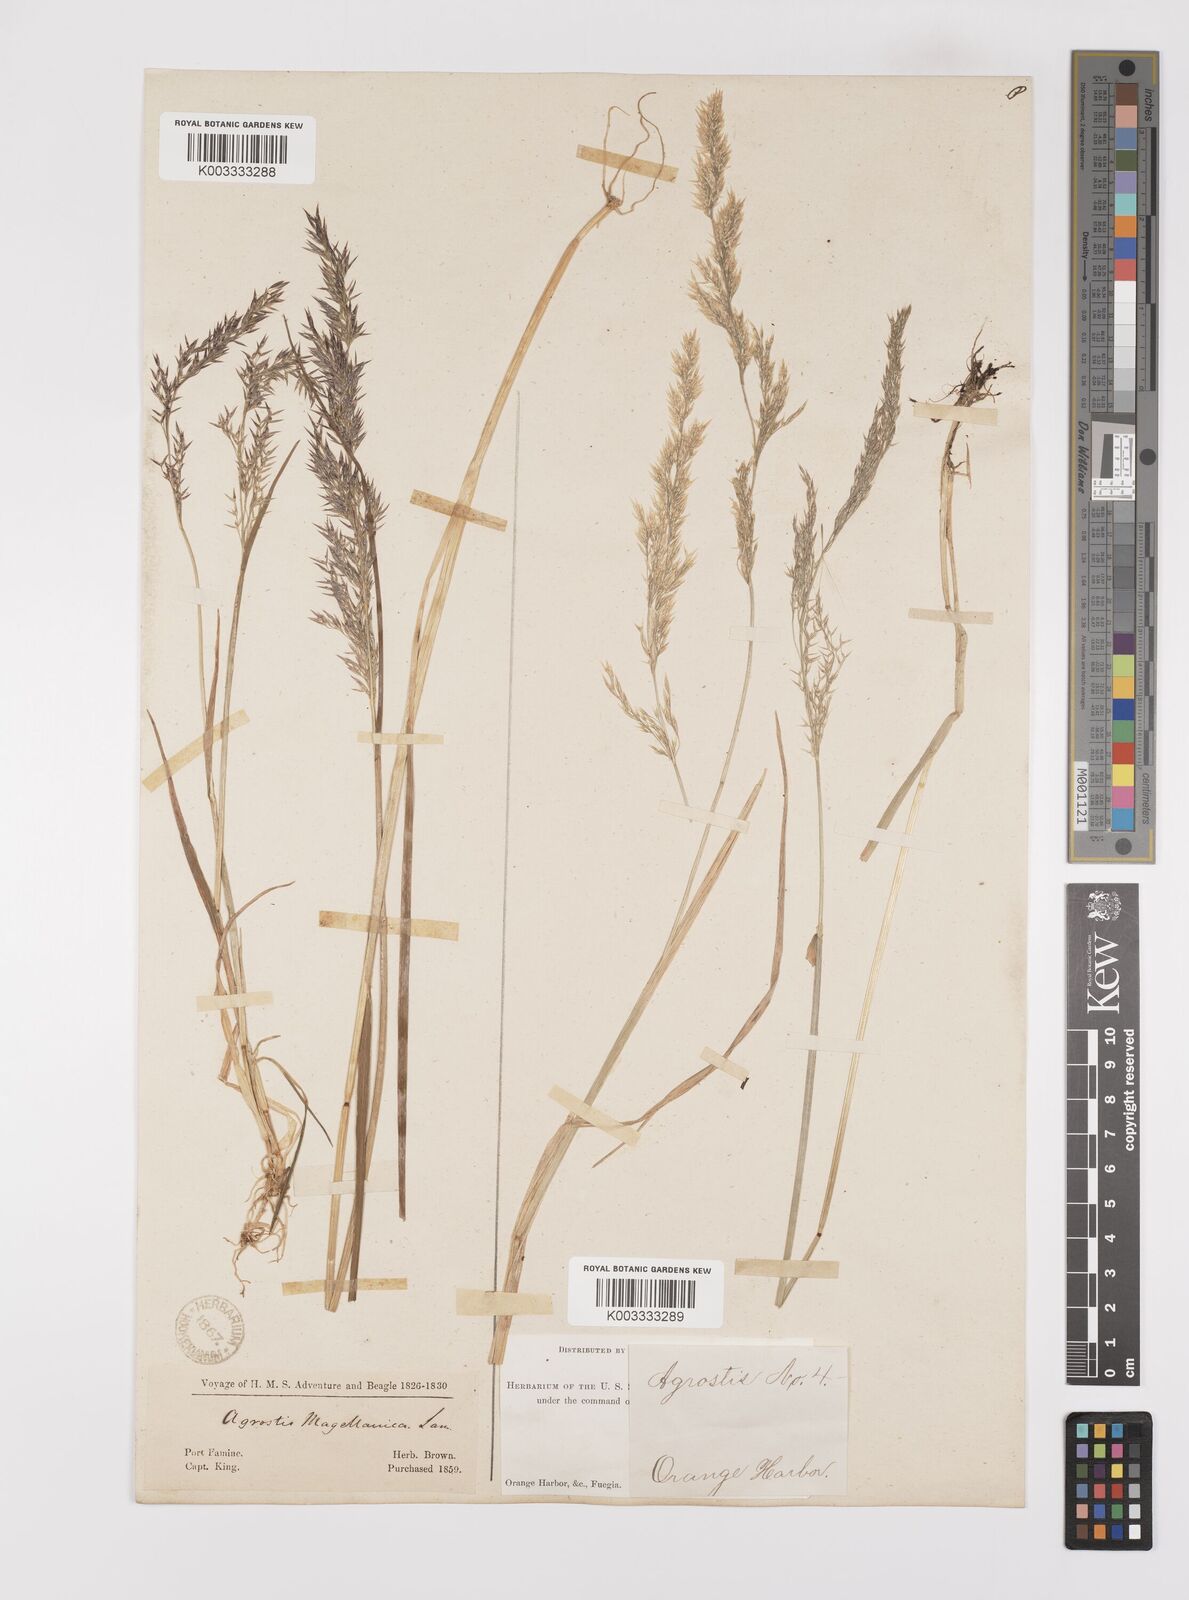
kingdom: Plantae
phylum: Tracheophyta
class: Liliopsida
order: Poales
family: Poaceae
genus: Polypogon
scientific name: Polypogon magellanicus
